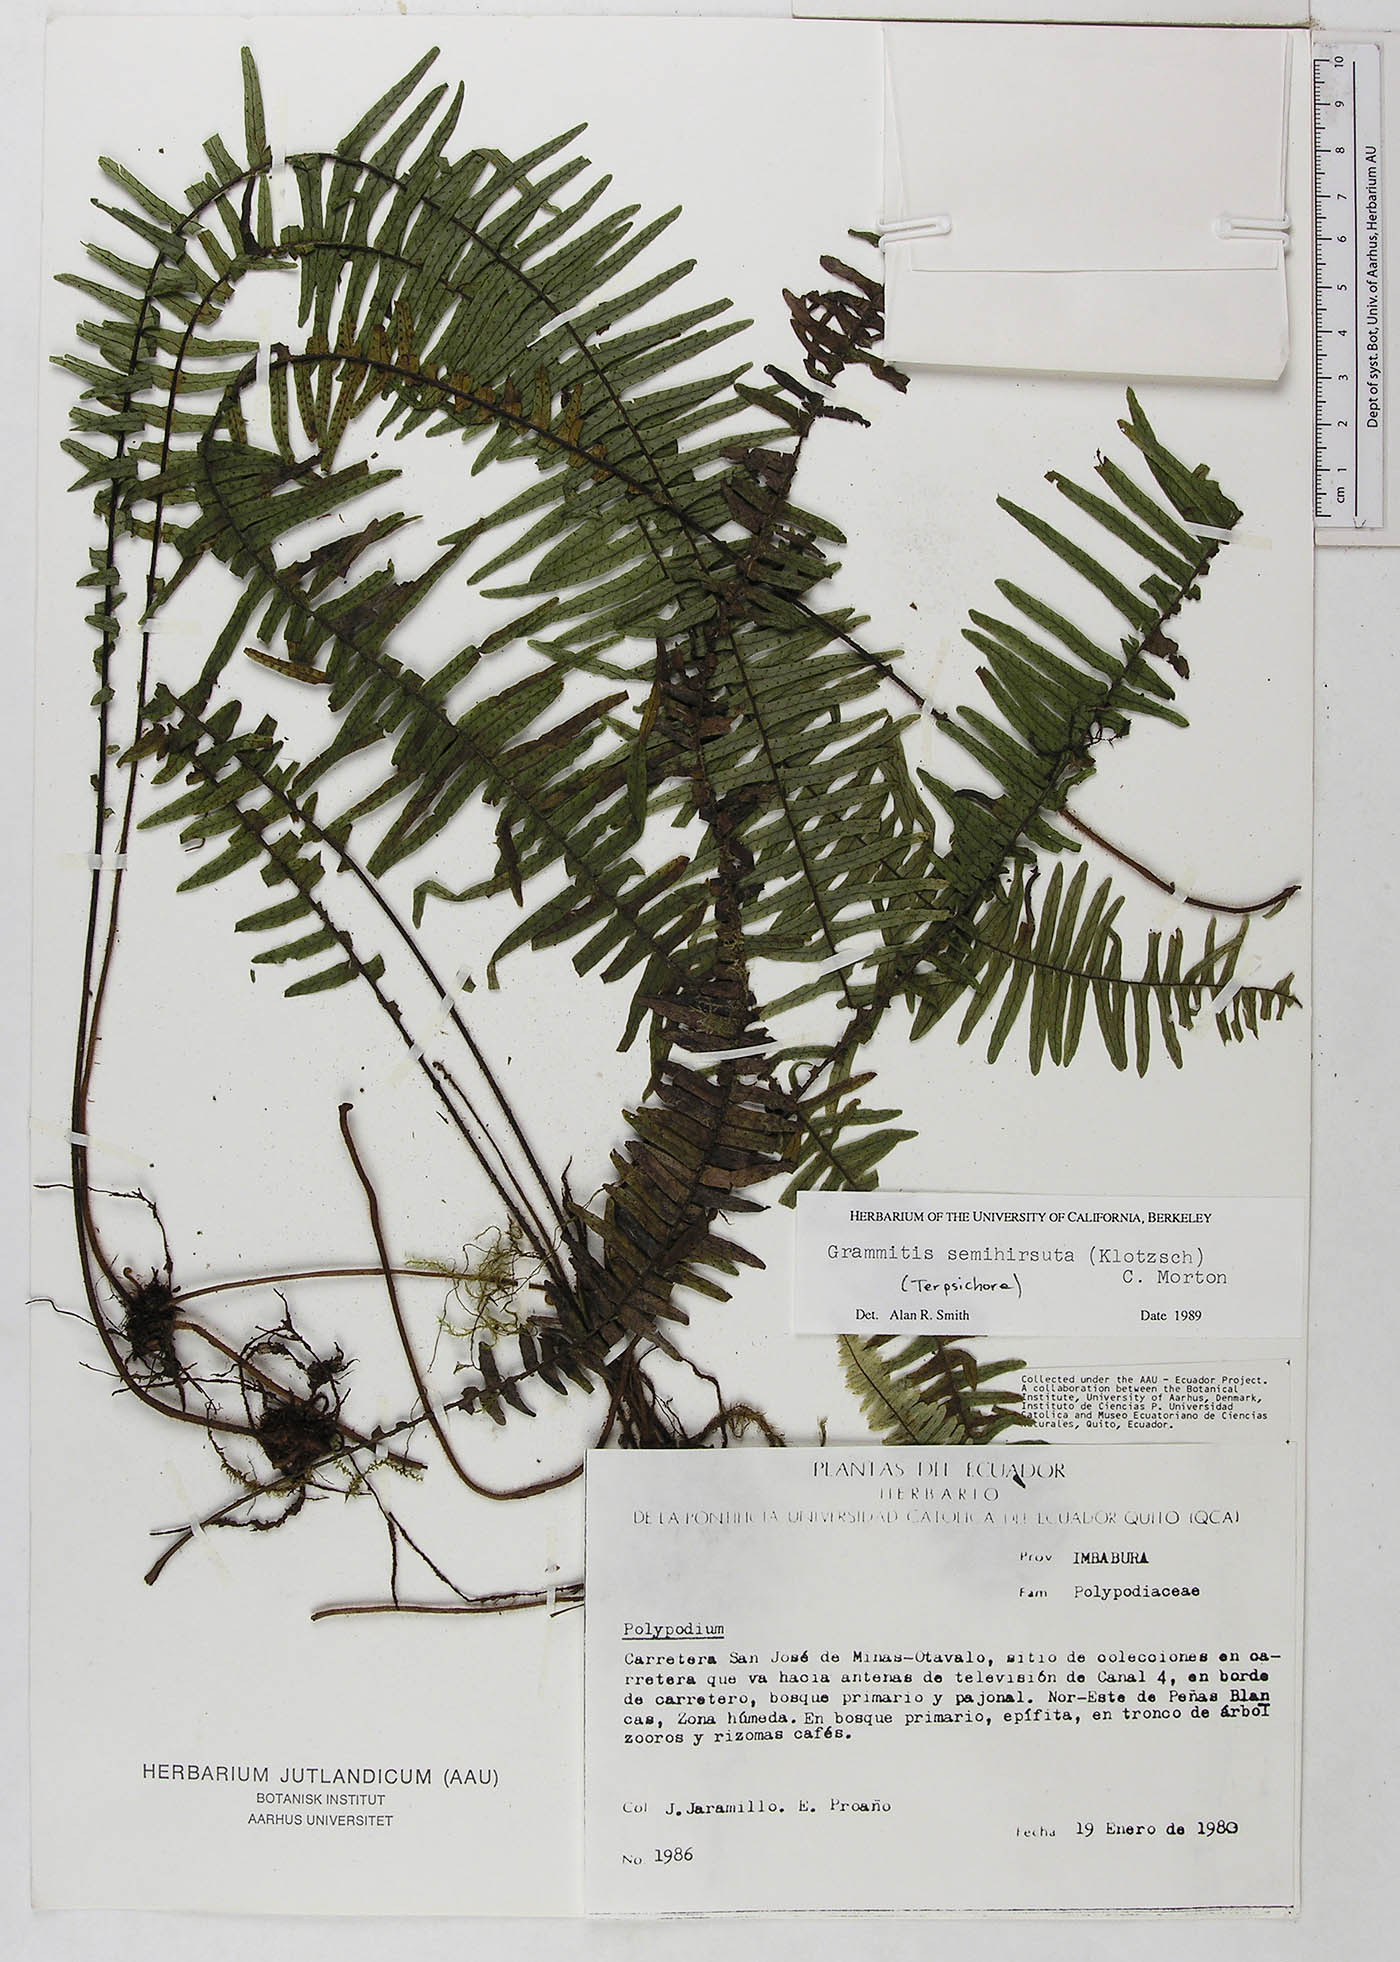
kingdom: Plantae
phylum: Tracheophyta
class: Polypodiopsida
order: Polypodiales
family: Polypodiaceae
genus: Mycopteris
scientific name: Mycopteris semihirsuta
